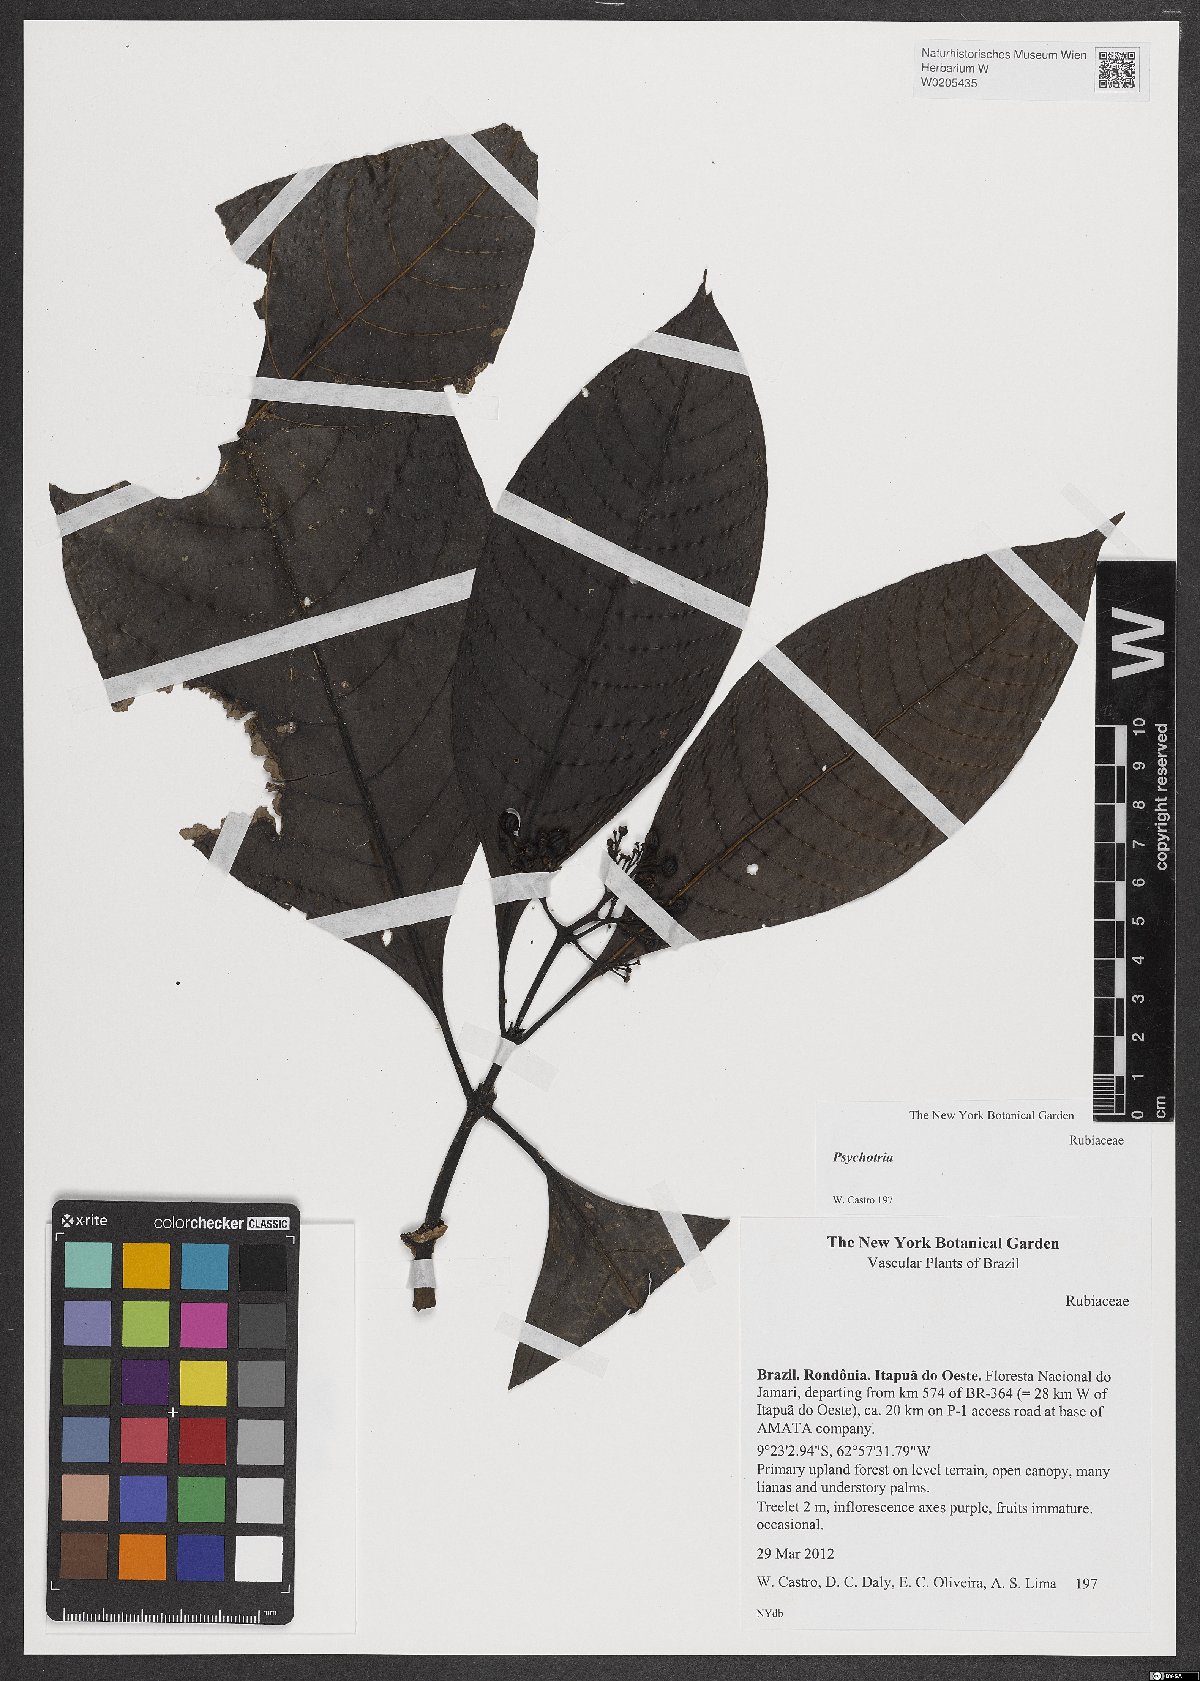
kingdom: Plantae
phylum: Tracheophyta
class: Magnoliopsida
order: Gentianales
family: Rubiaceae
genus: Palicourea
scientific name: Palicourea grandiflora
